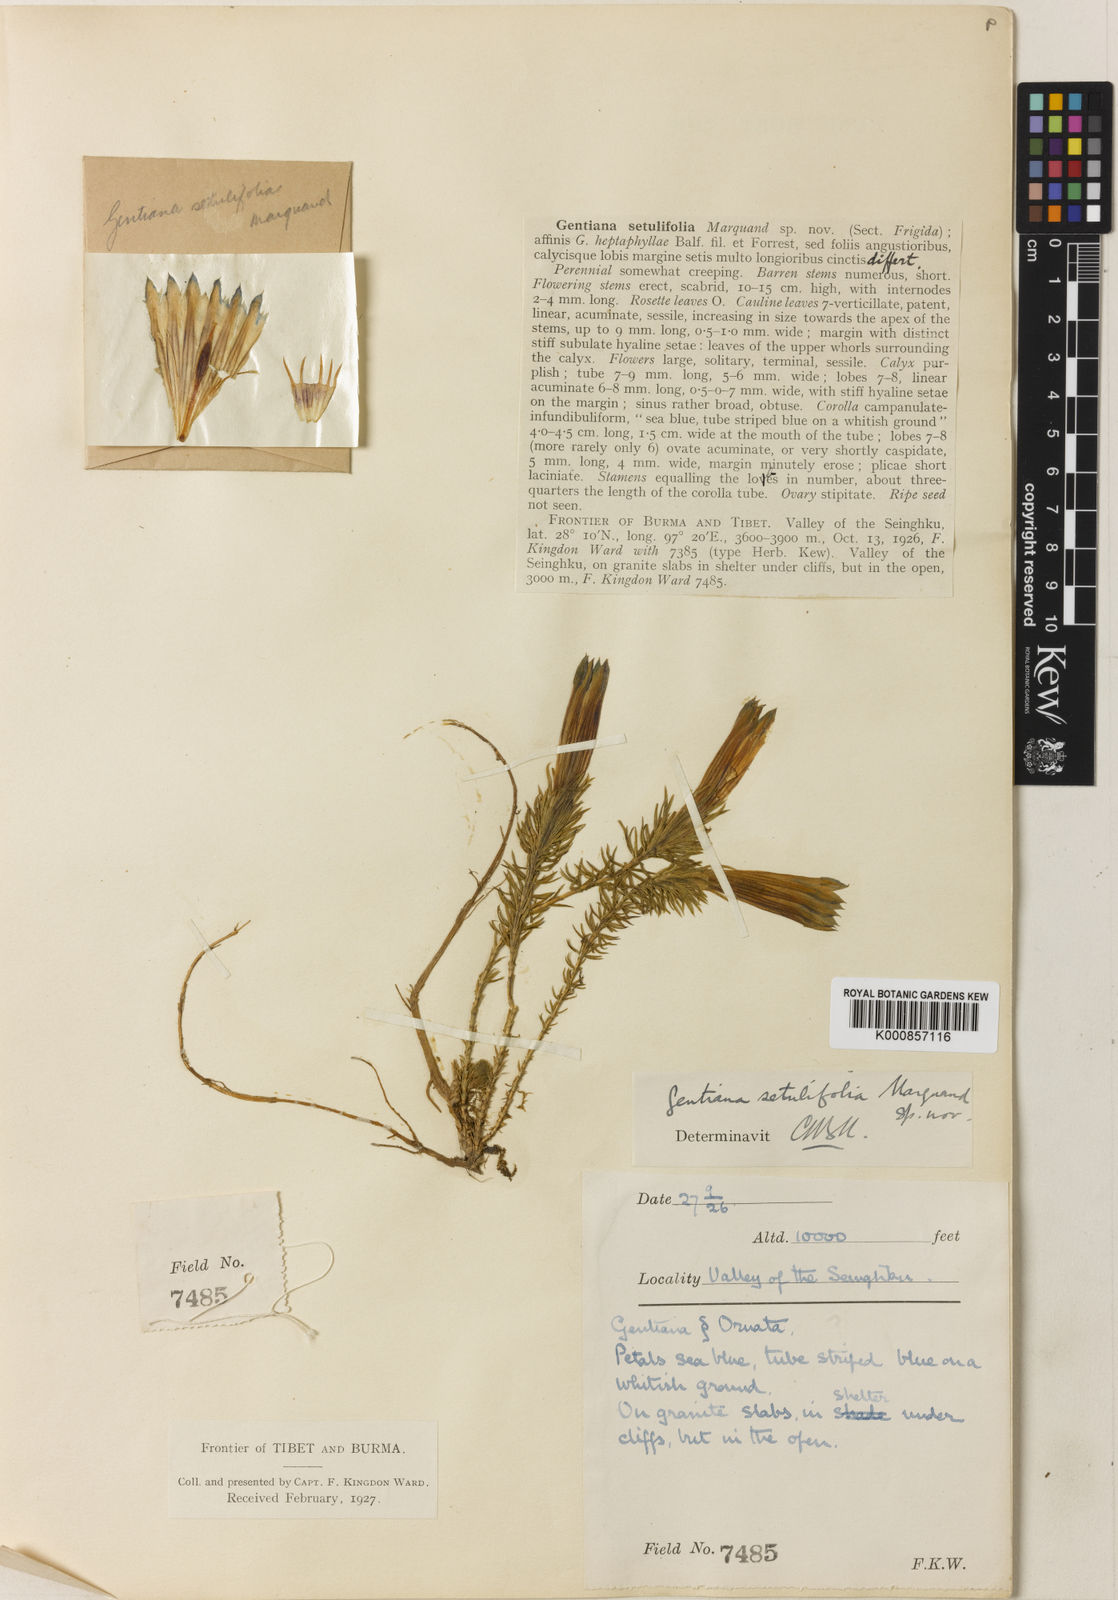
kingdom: Plantae
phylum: Tracheophyta
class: Magnoliopsida
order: Gentianales
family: Gentianaceae
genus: Gentiana
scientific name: Gentiana ecaudata
